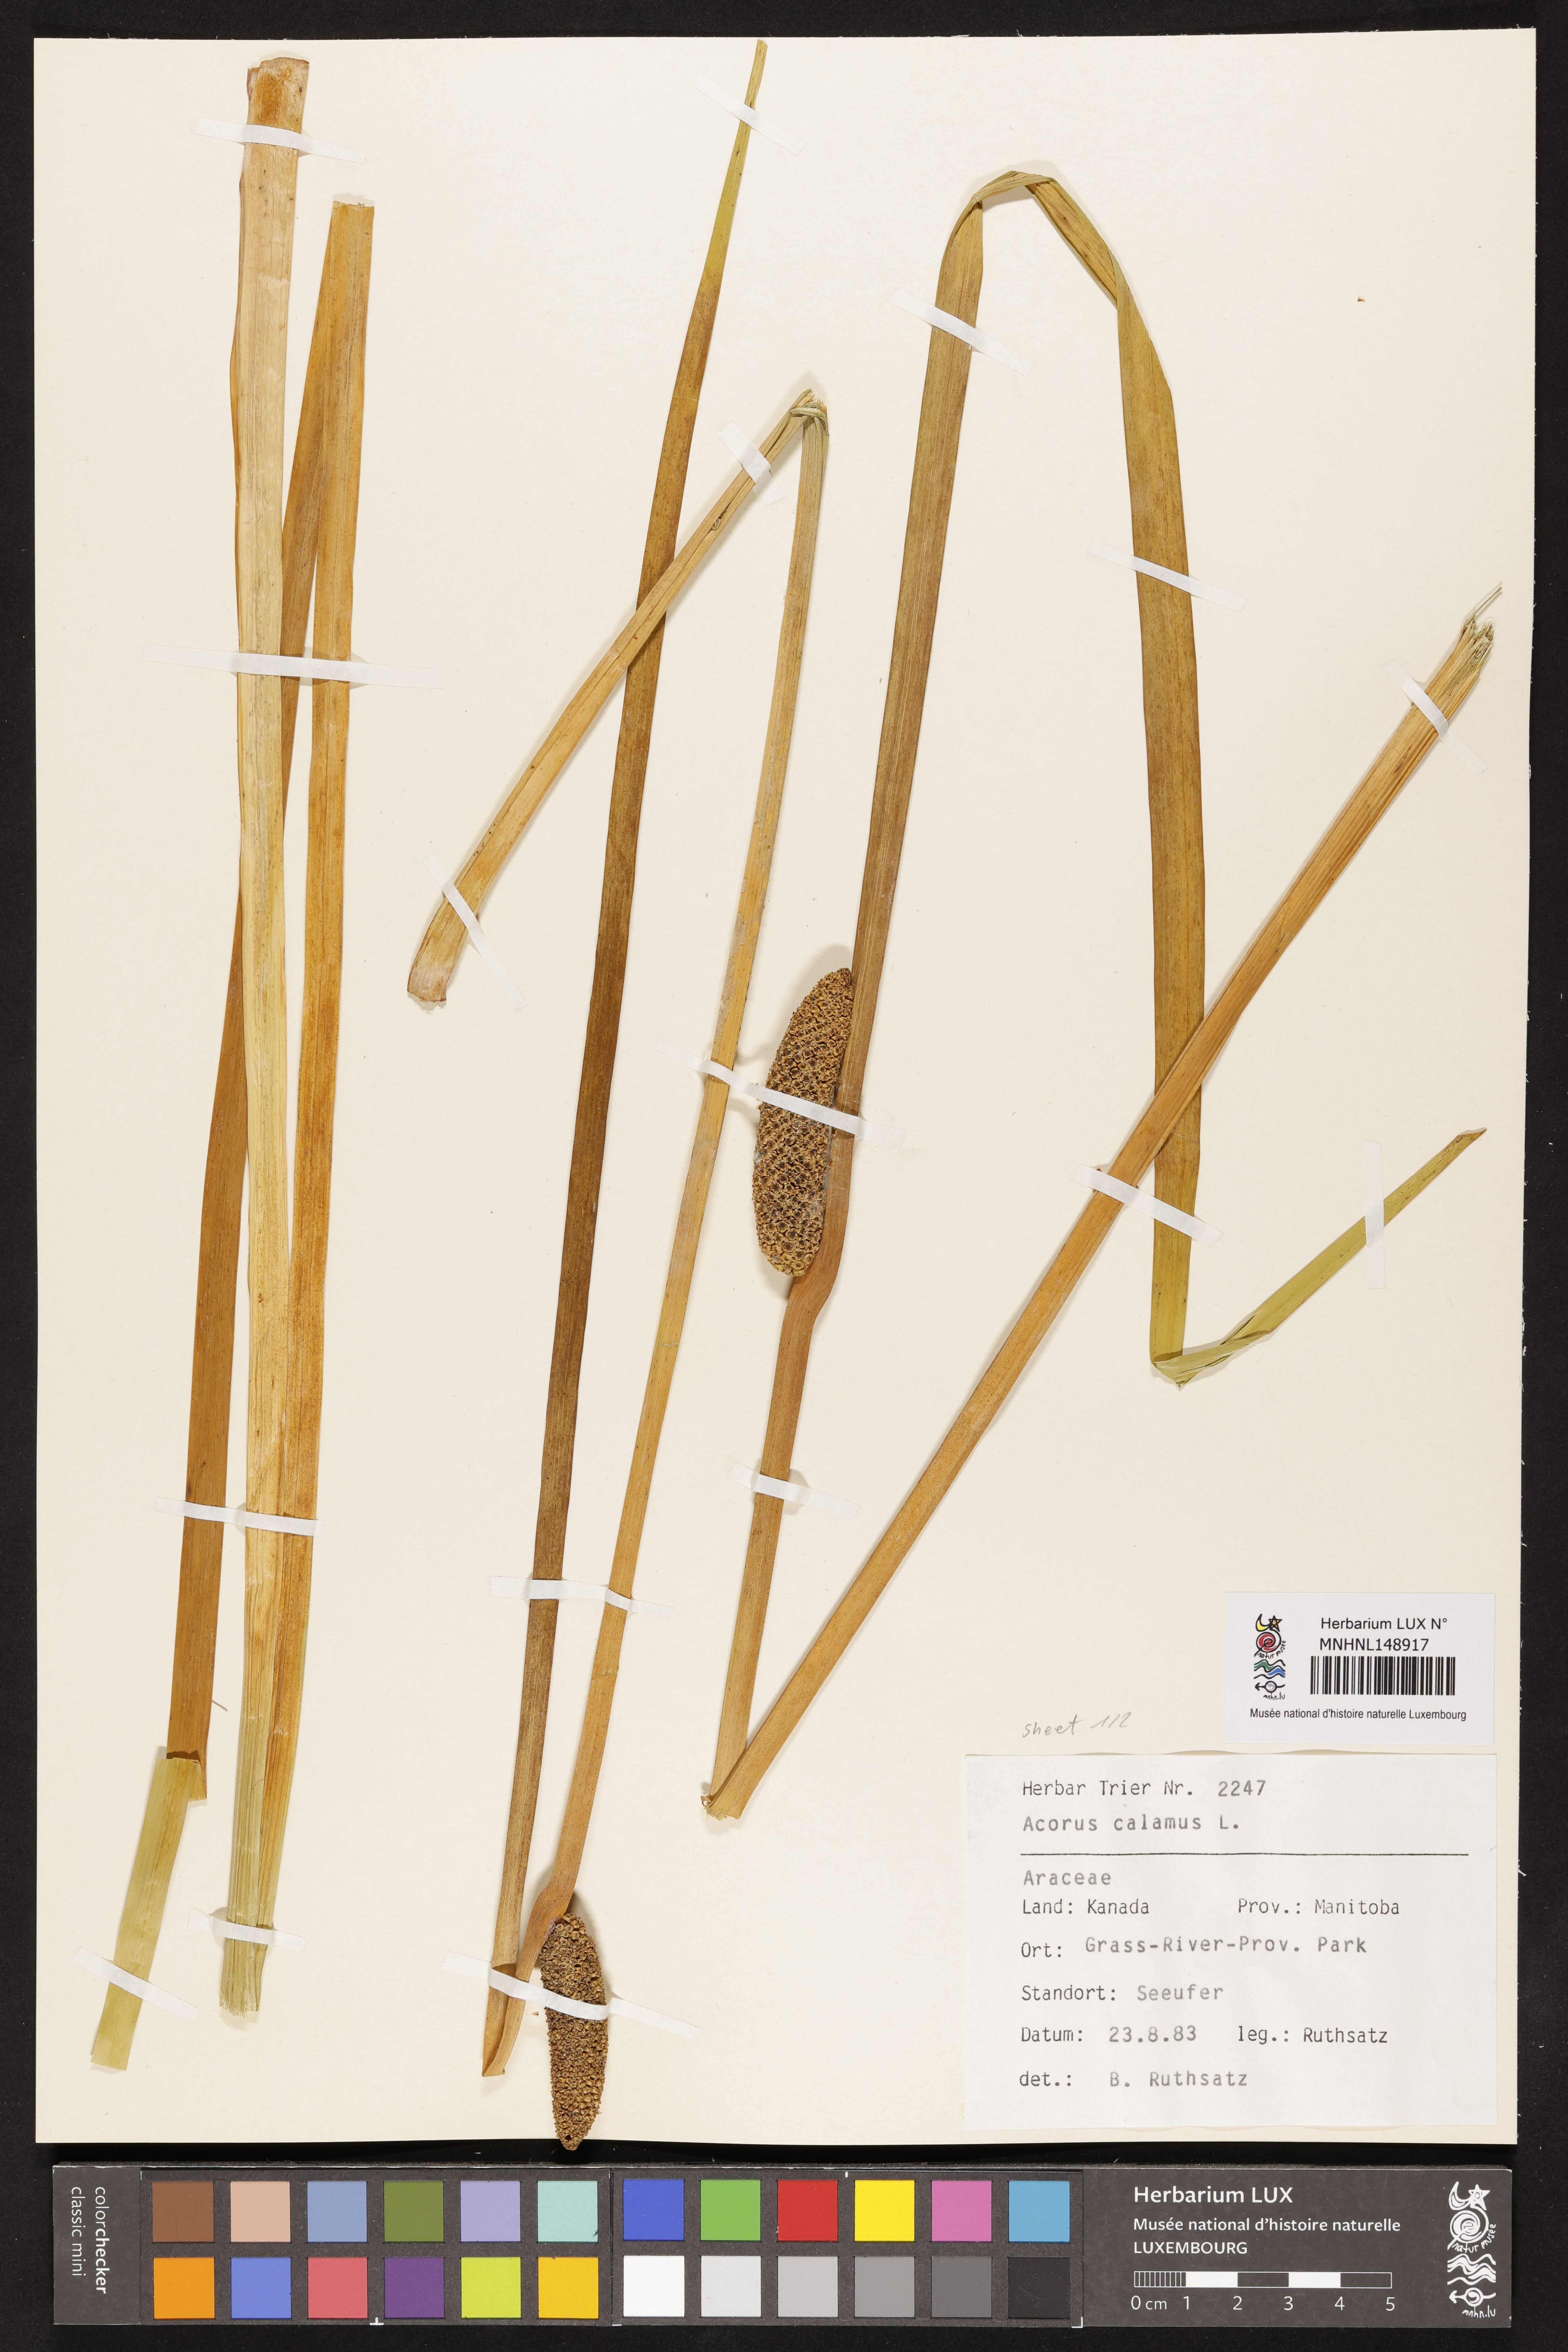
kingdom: Plantae
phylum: Tracheophyta
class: Liliopsida
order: Acorales
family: Acoraceae
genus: Acorus
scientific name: Acorus calamus
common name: Sweet-flag
